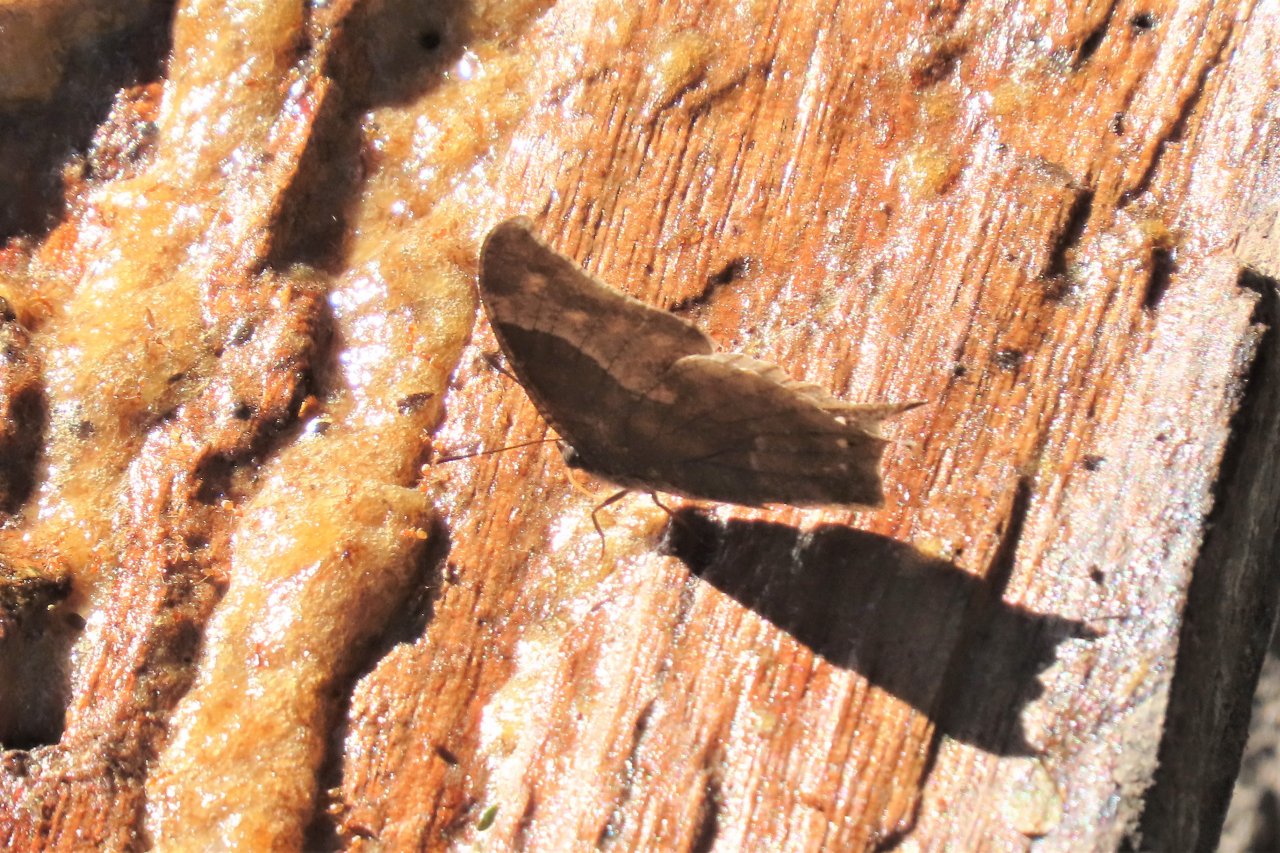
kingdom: Animalia
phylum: Arthropoda
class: Insecta
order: Lepidoptera
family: Nymphalidae
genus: Anaea
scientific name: Anaea pithyusa
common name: Pale-spotted Leafwing
